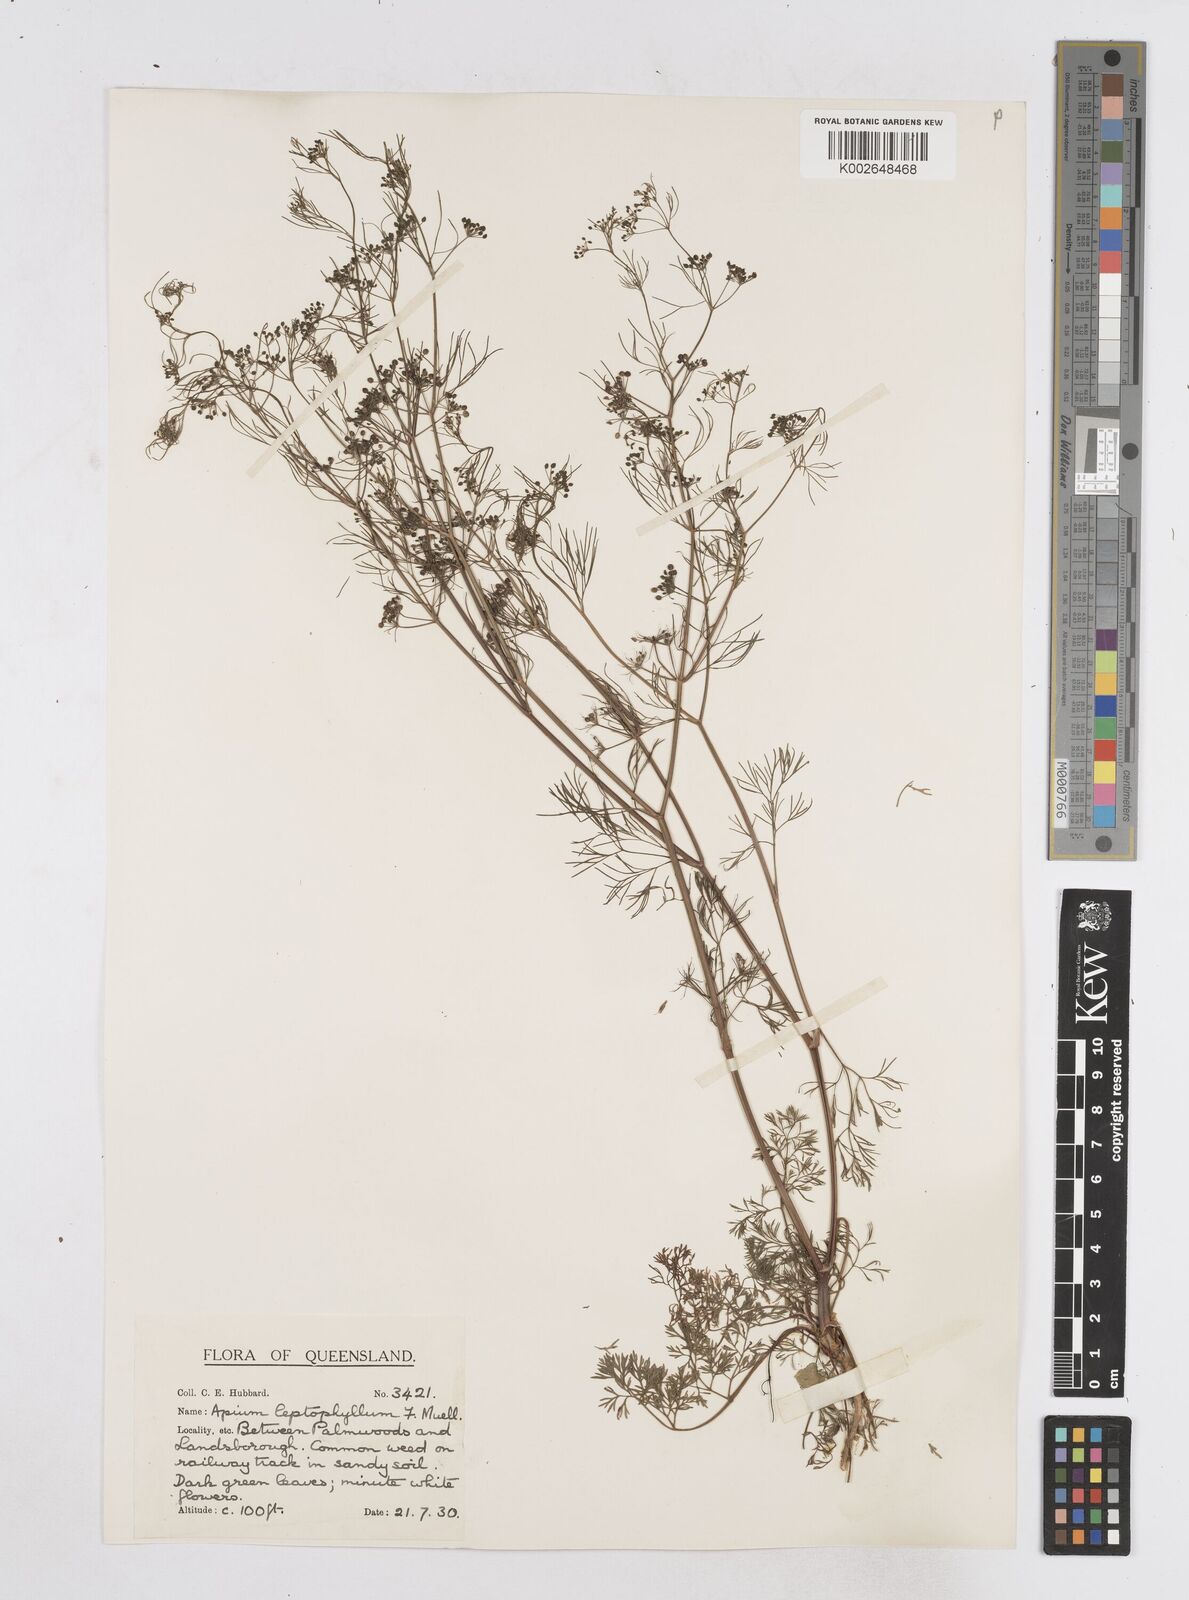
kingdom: Plantae
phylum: Tracheophyta
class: Magnoliopsida
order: Apiales
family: Apiaceae
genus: Cyclospermum
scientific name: Cyclospermum leptophyllum
